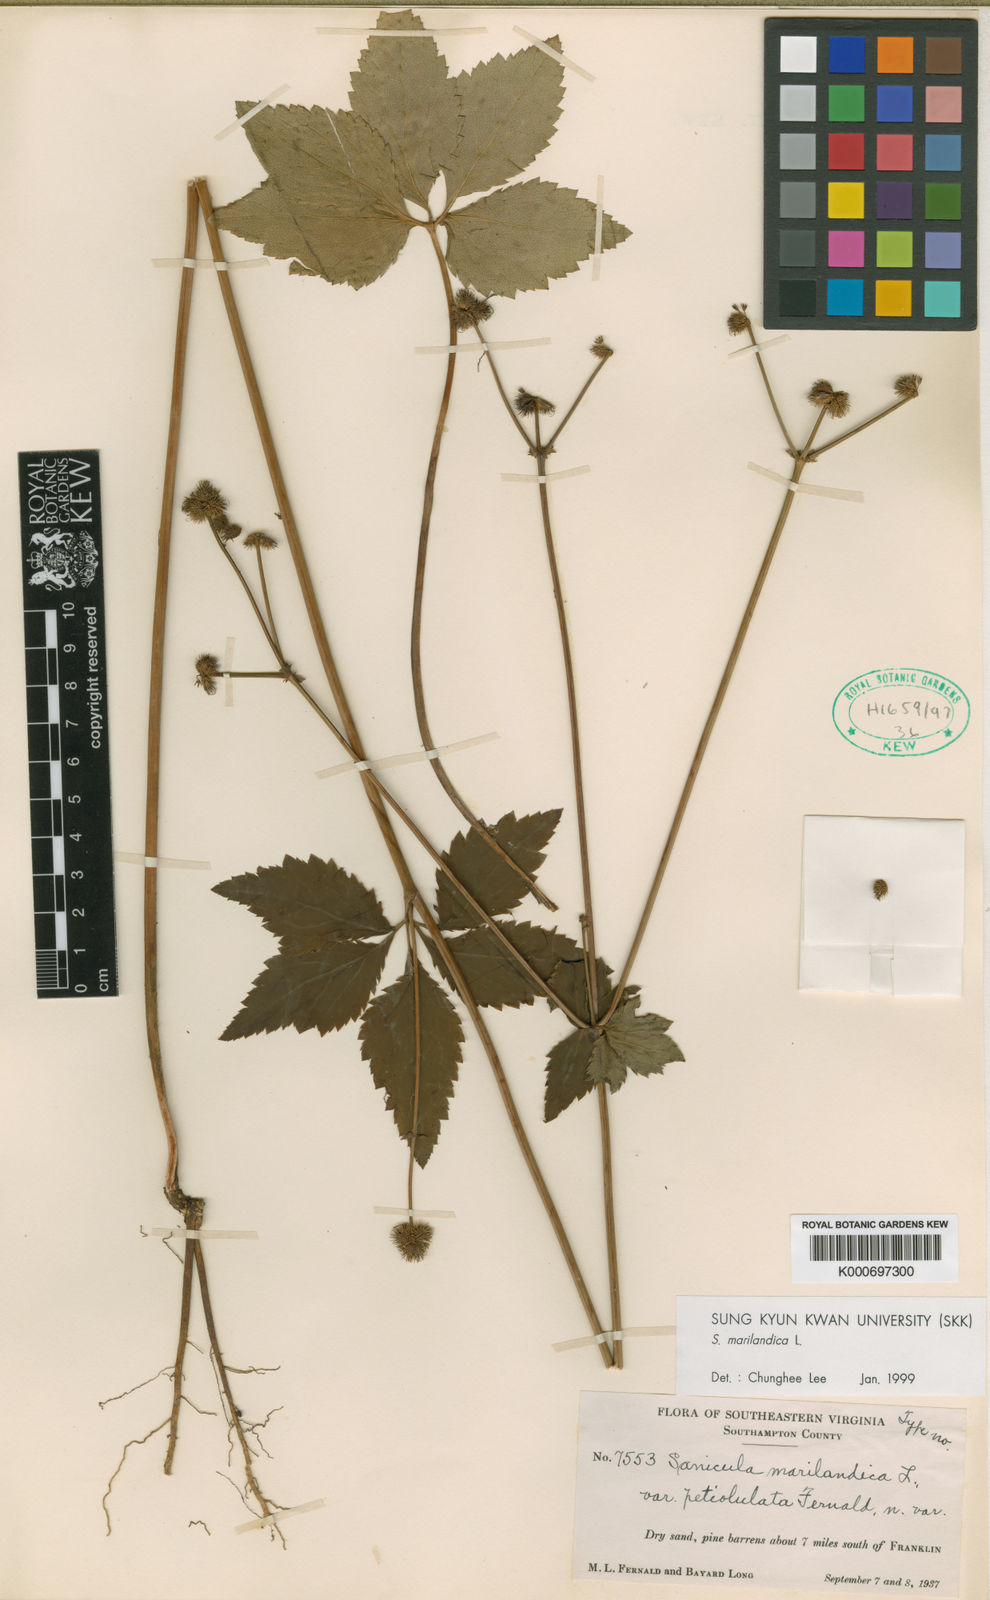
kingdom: Plantae
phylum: Tracheophyta
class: Magnoliopsida
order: Apiales
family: Apiaceae
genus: Sanicula
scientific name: Sanicula marilandica
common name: Black snakeroot
